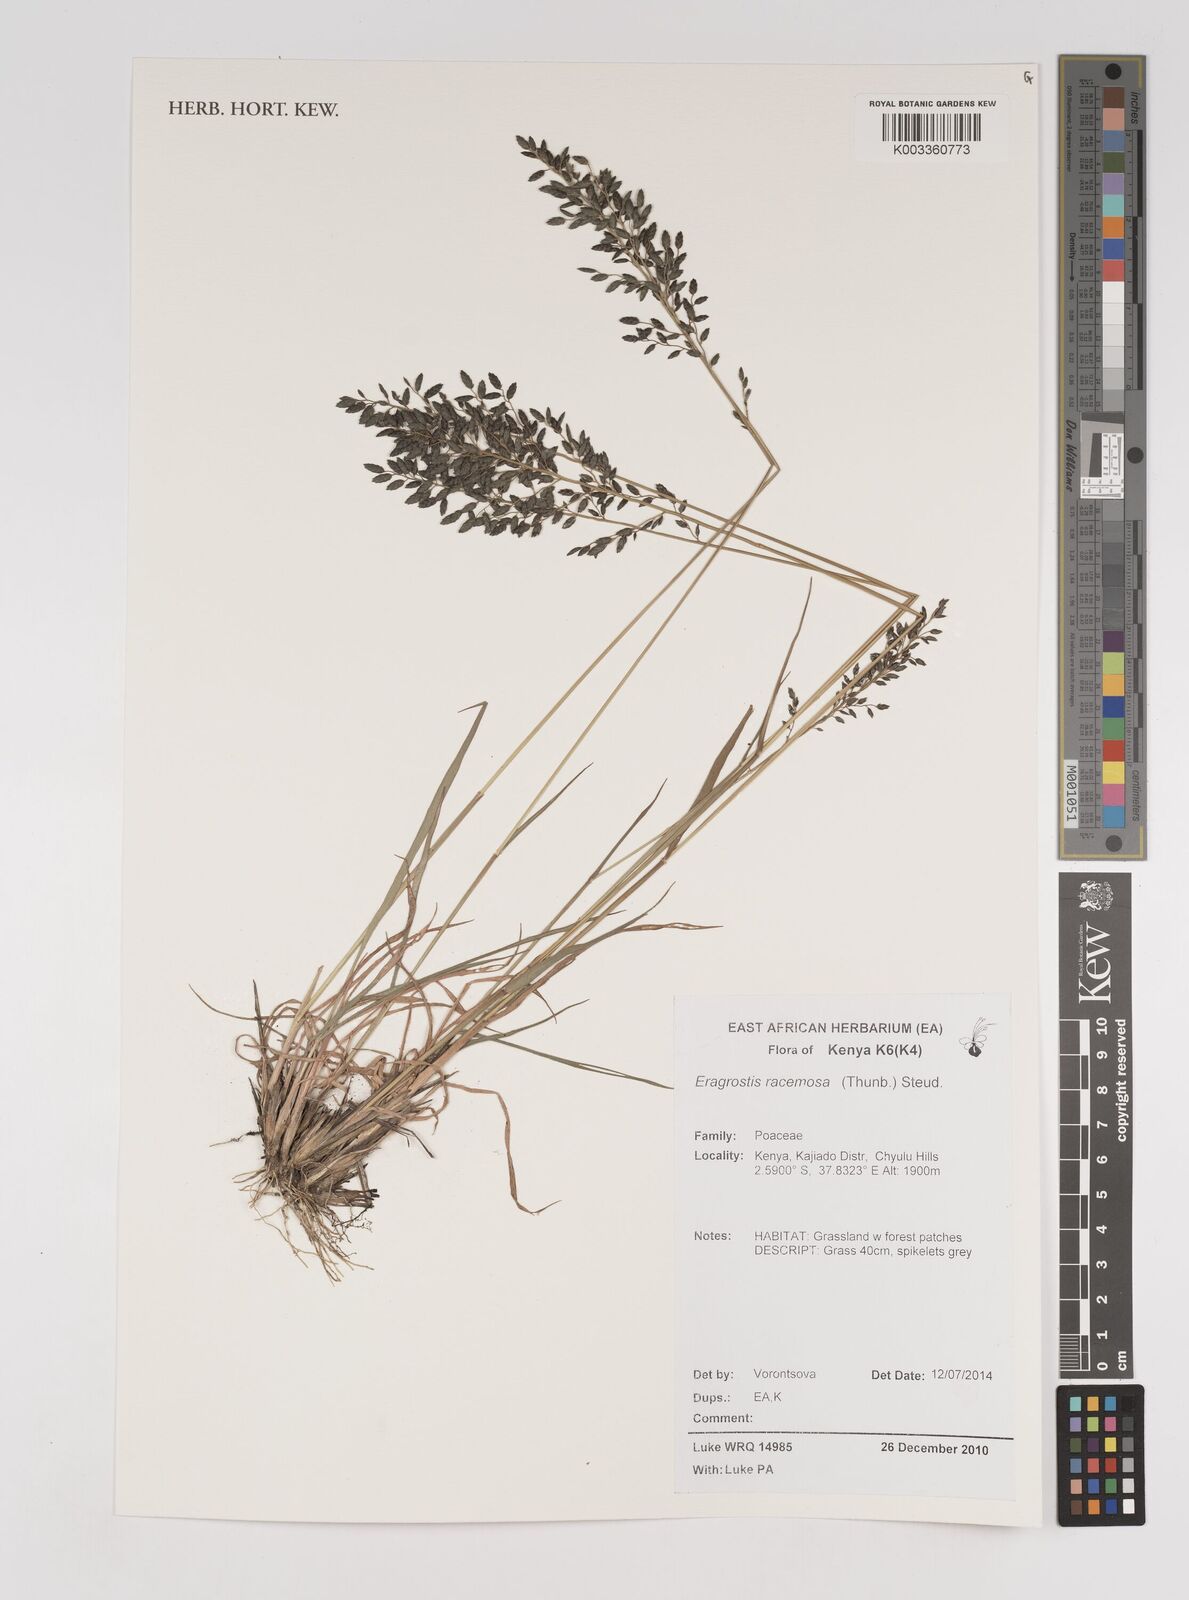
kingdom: Plantae
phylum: Tracheophyta
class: Liliopsida
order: Poales
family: Poaceae
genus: Eragrostis
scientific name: Eragrostis racemosa
